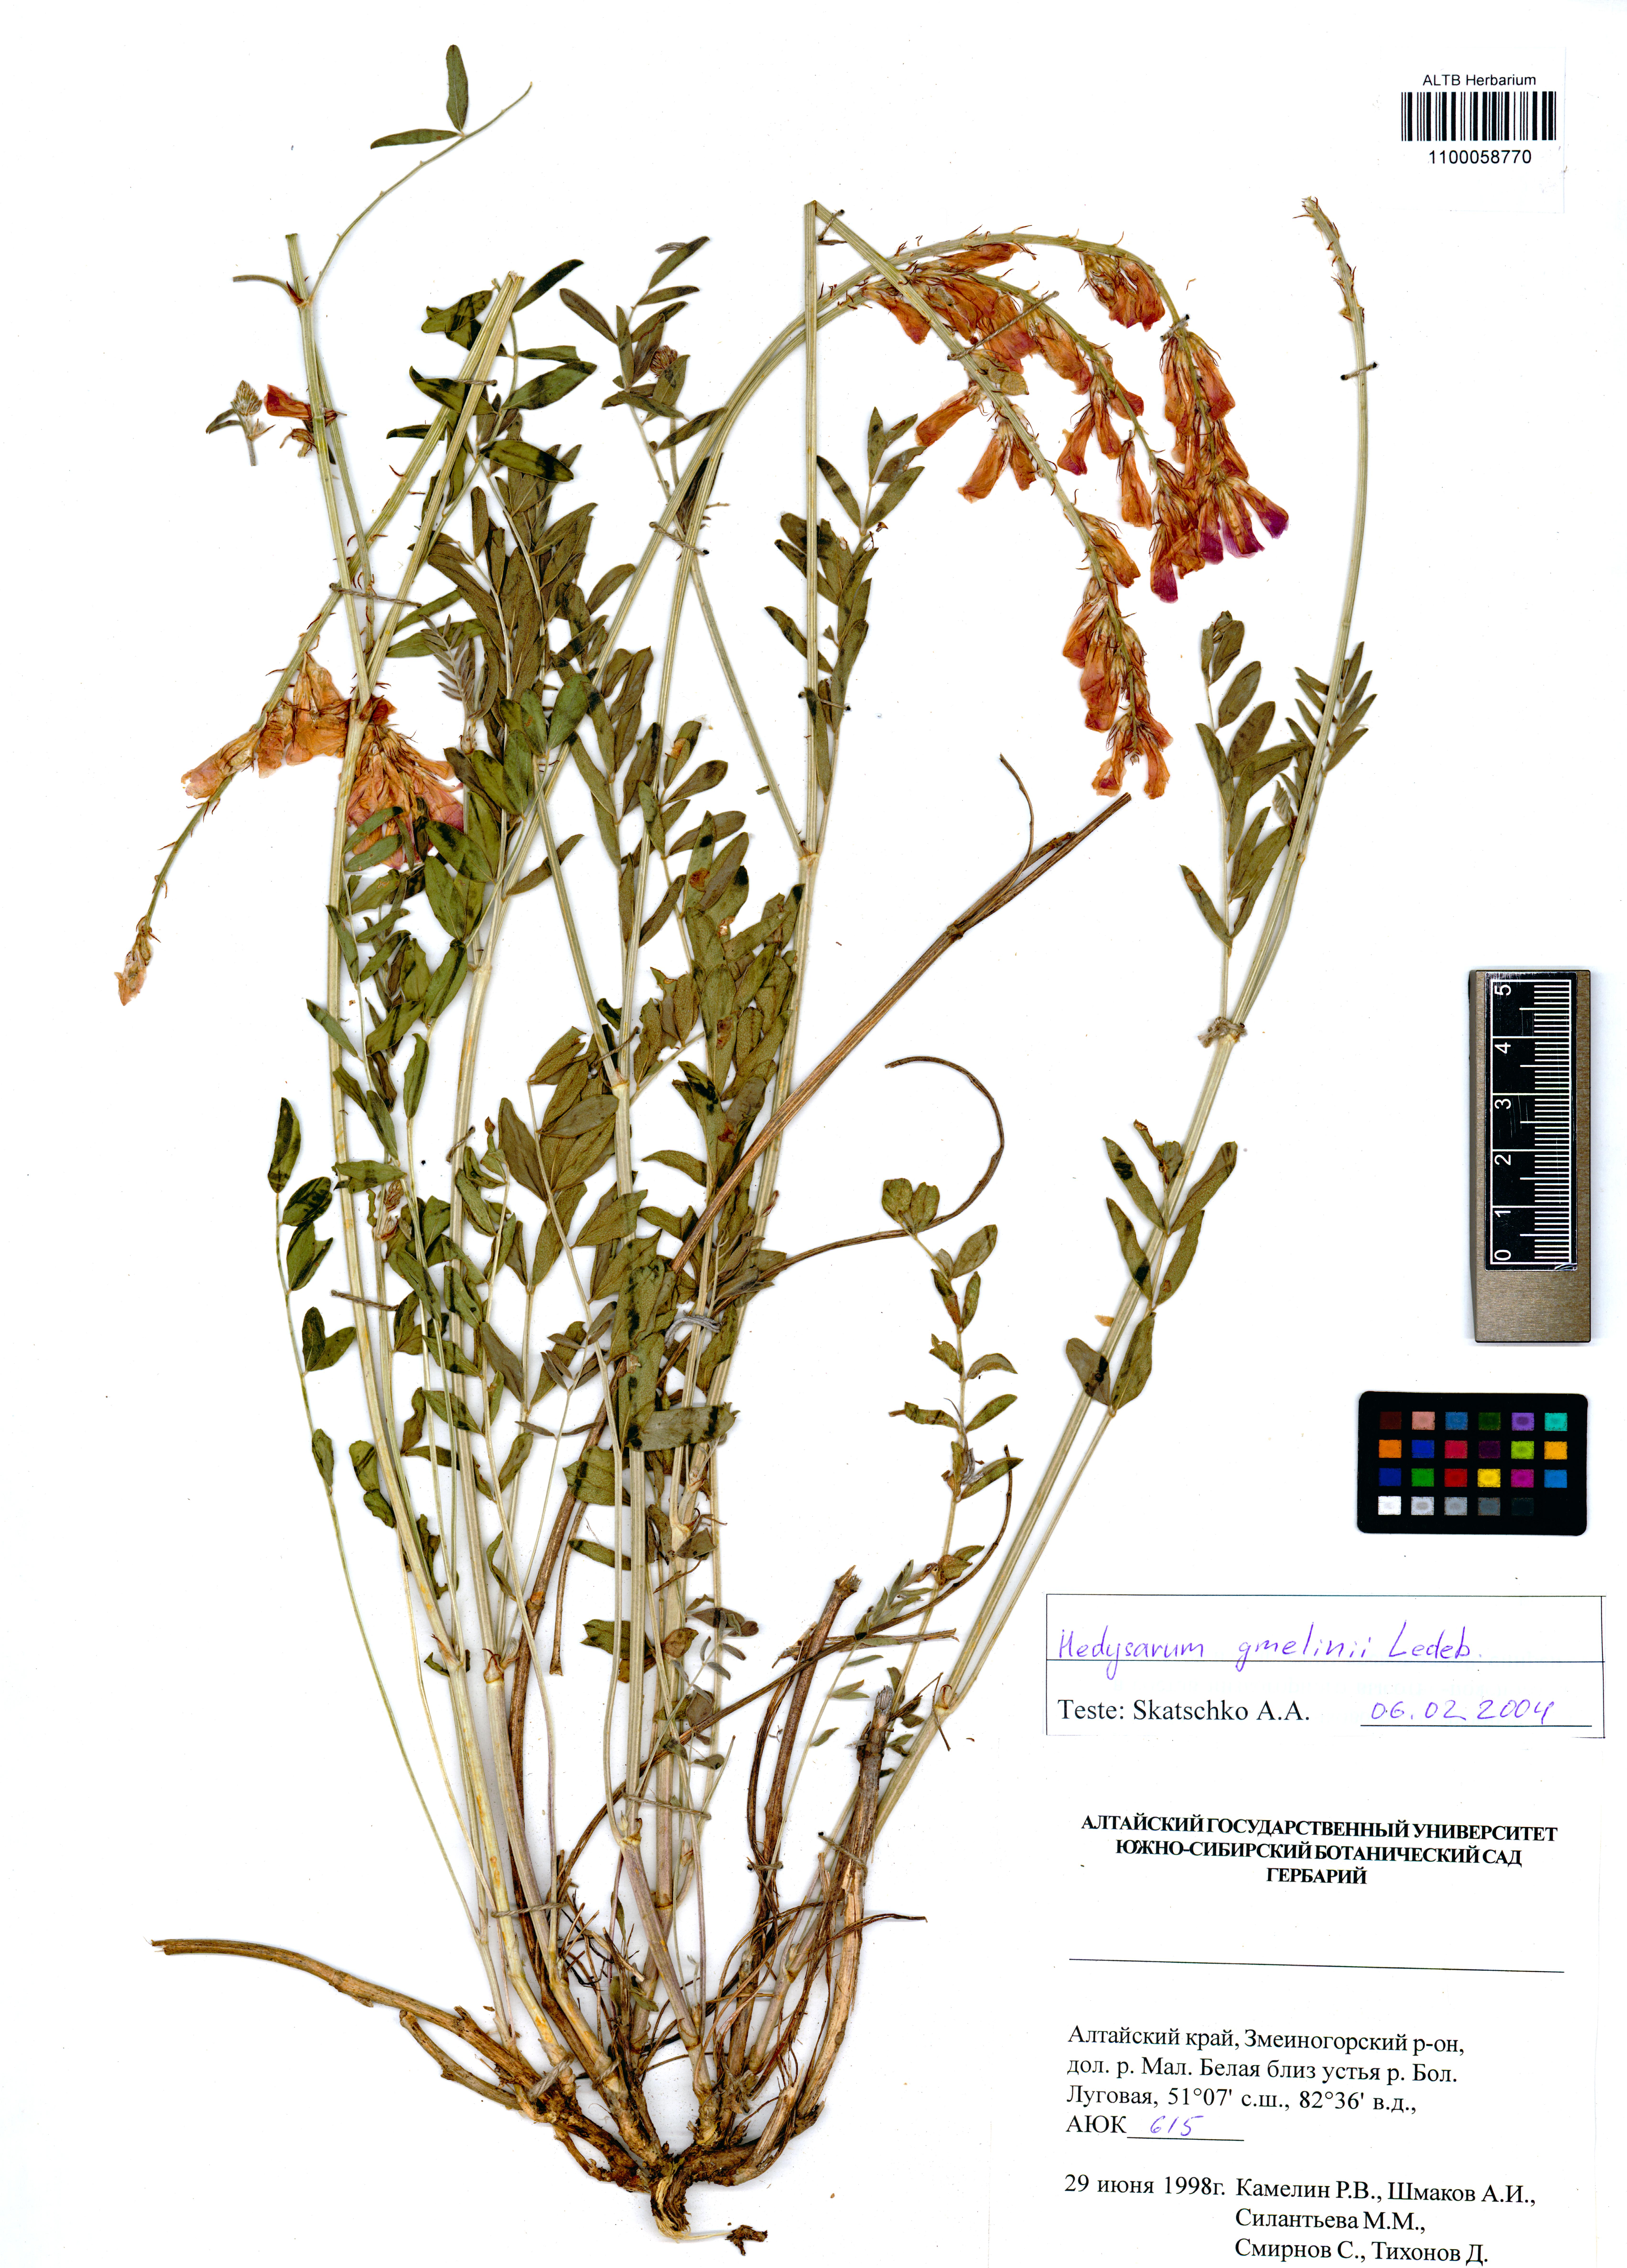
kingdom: Plantae
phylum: Tracheophyta
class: Magnoliopsida
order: Fabales
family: Fabaceae
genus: Hedysarum
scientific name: Hedysarum gmelinii
